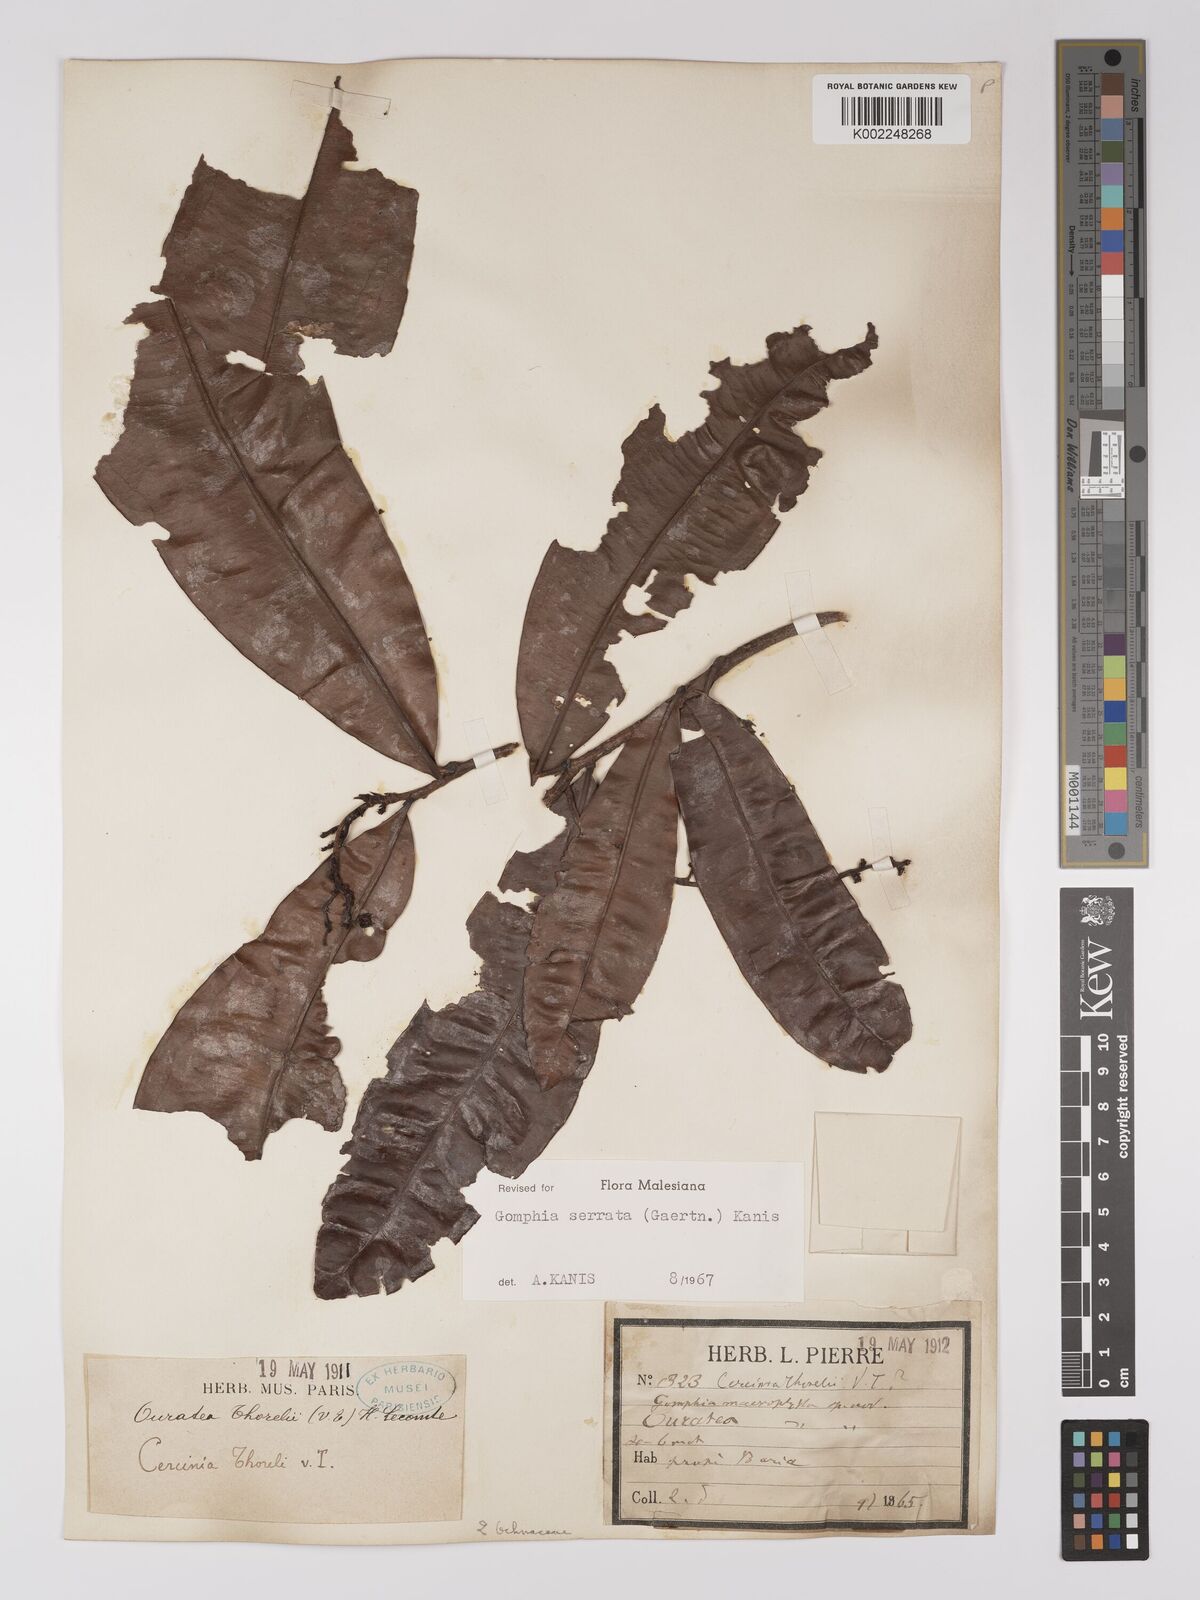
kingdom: Plantae
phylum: Tracheophyta
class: Magnoliopsida
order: Malpighiales
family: Ochnaceae
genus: Gomphia
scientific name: Gomphia serrata
